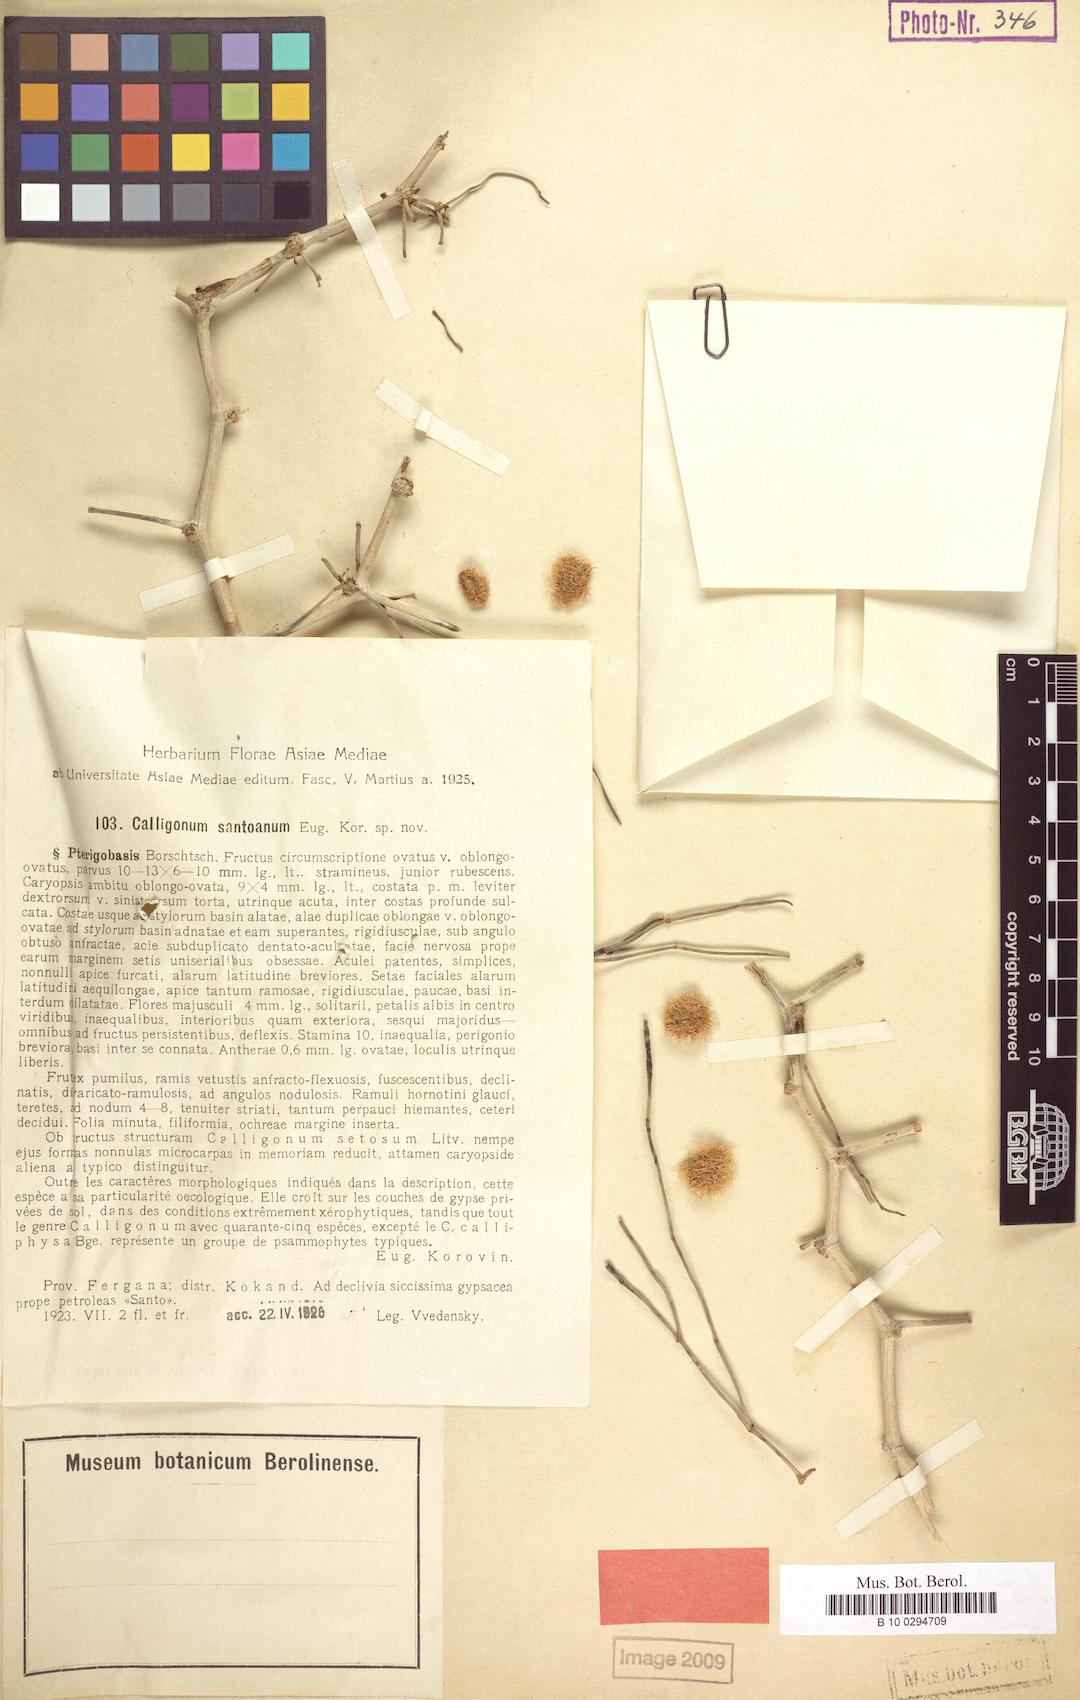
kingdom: Plantae
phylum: Tracheophyta
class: Magnoliopsida
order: Caryophyllales
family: Polygonaceae
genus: Calligonum
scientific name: Calligonum santoanum
